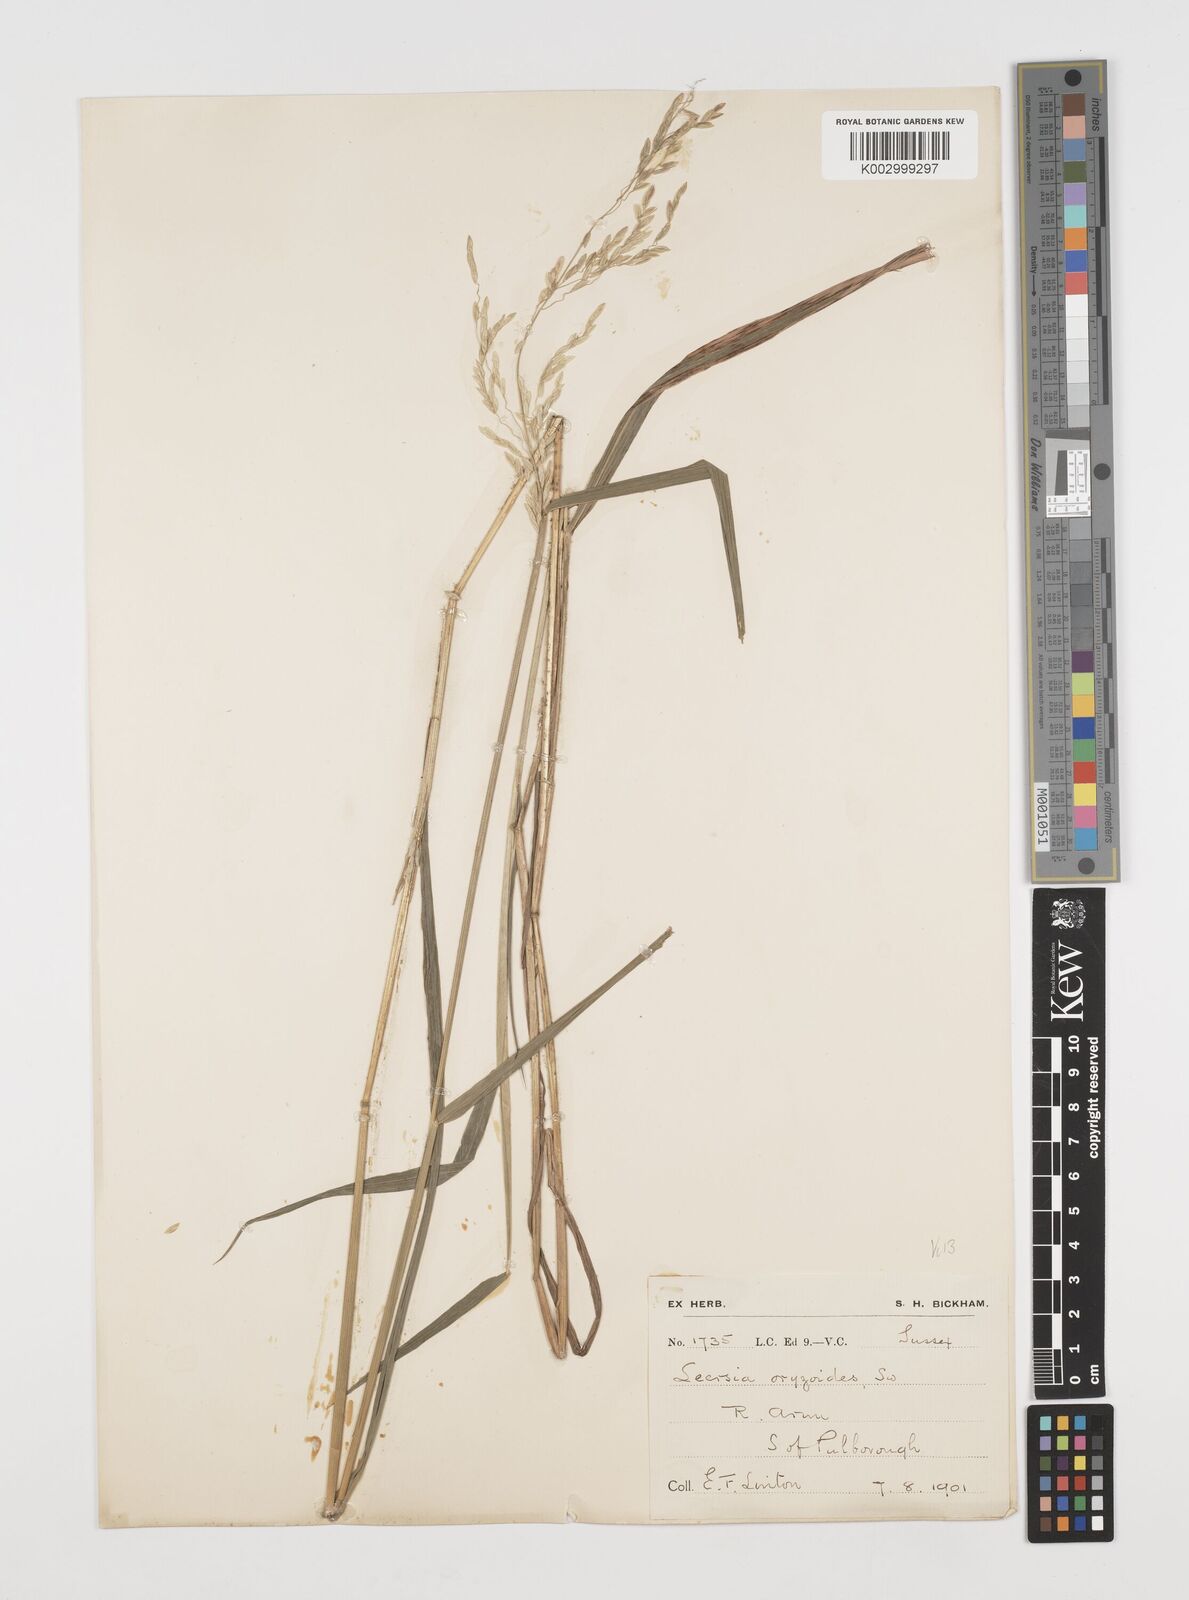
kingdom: Plantae
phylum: Tracheophyta
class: Liliopsida
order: Poales
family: Poaceae
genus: Leersia
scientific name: Leersia oryzoides
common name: Cut-grass
